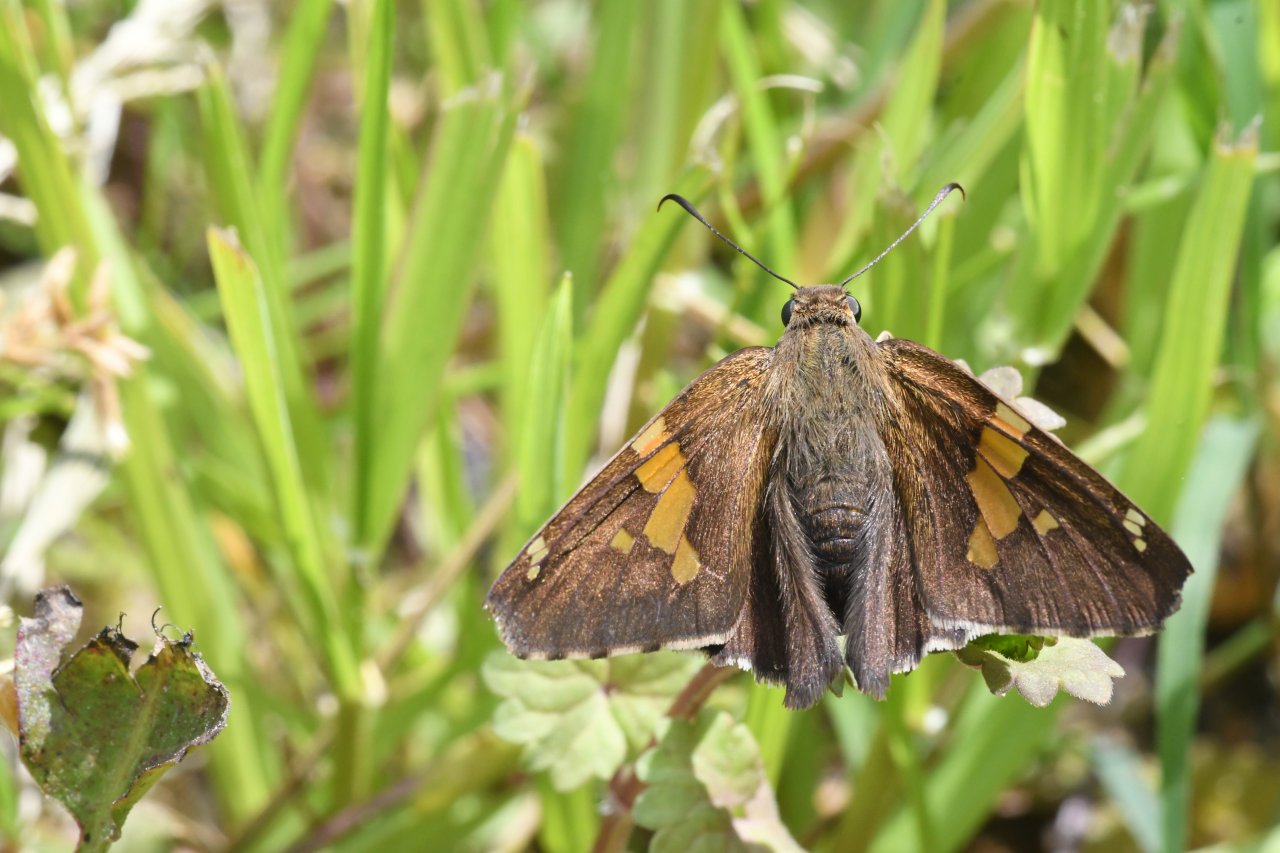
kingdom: Animalia
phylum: Arthropoda
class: Insecta
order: Lepidoptera
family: Hesperiidae
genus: Epargyreus
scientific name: Epargyreus clarus
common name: Silver-spotted Skipper
